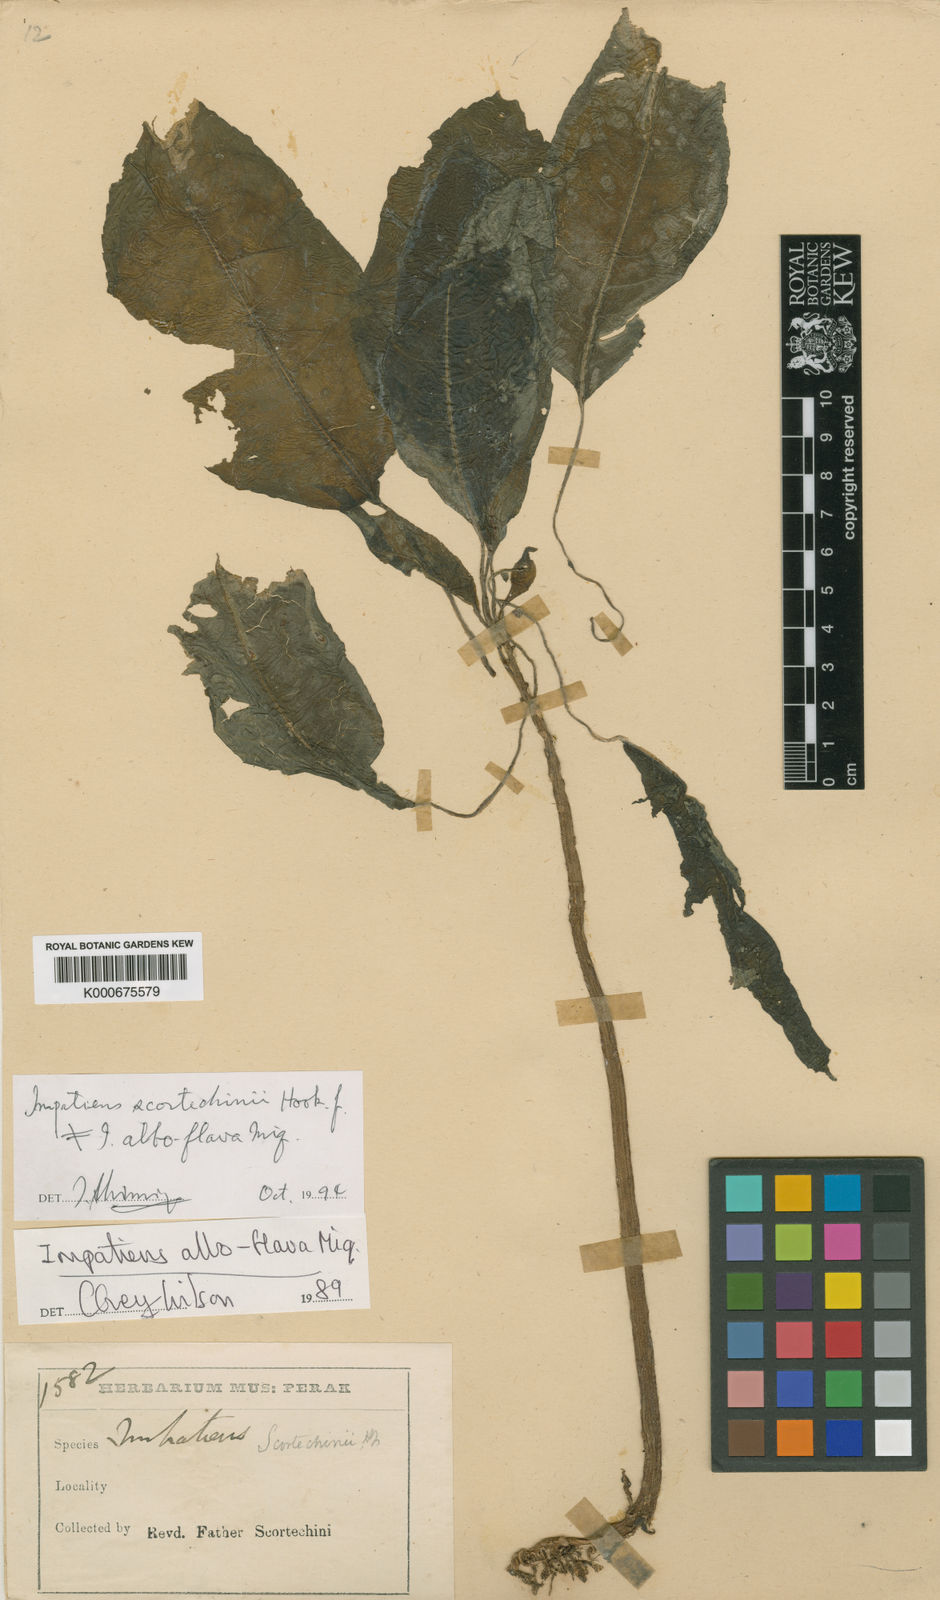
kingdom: Plantae
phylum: Tracheophyta
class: Magnoliopsida
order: Ericales
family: Balsaminaceae
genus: Impatiens
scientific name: Impatiens scortechinii
